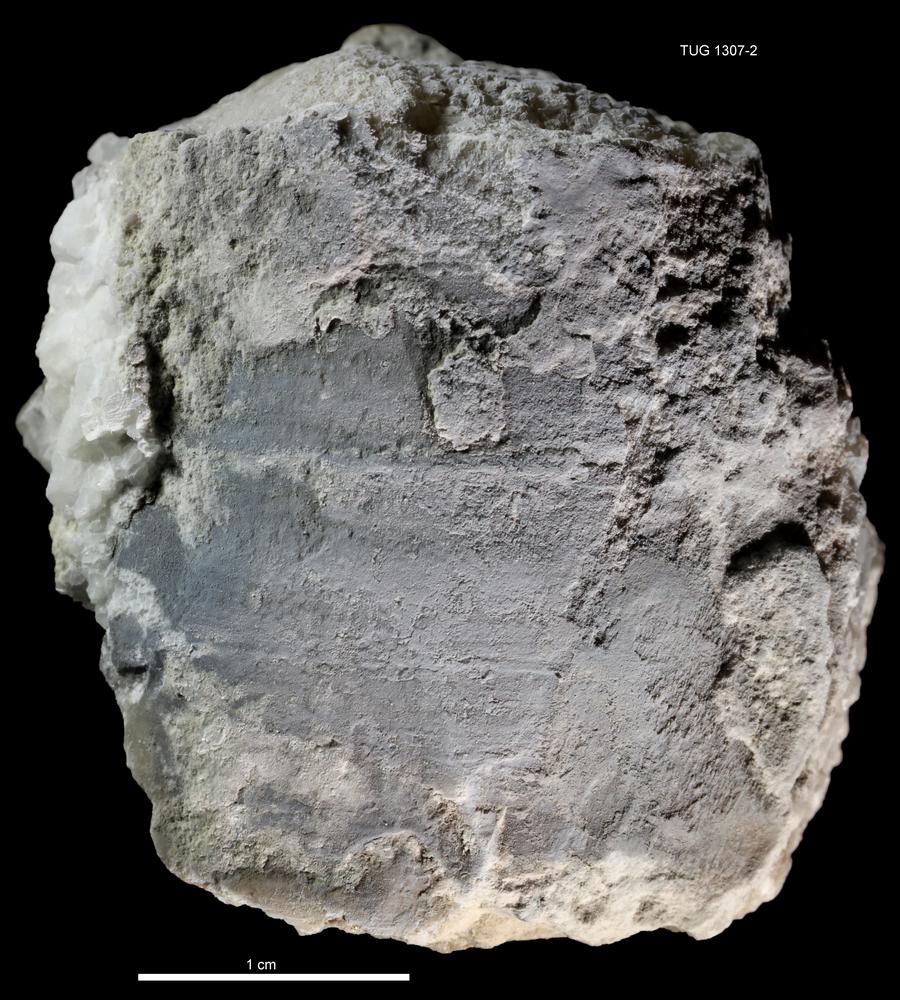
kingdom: Animalia
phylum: Mollusca
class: Cephalopoda
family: Protocycloceratidae
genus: Diastoloceras
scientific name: Diastoloceras
